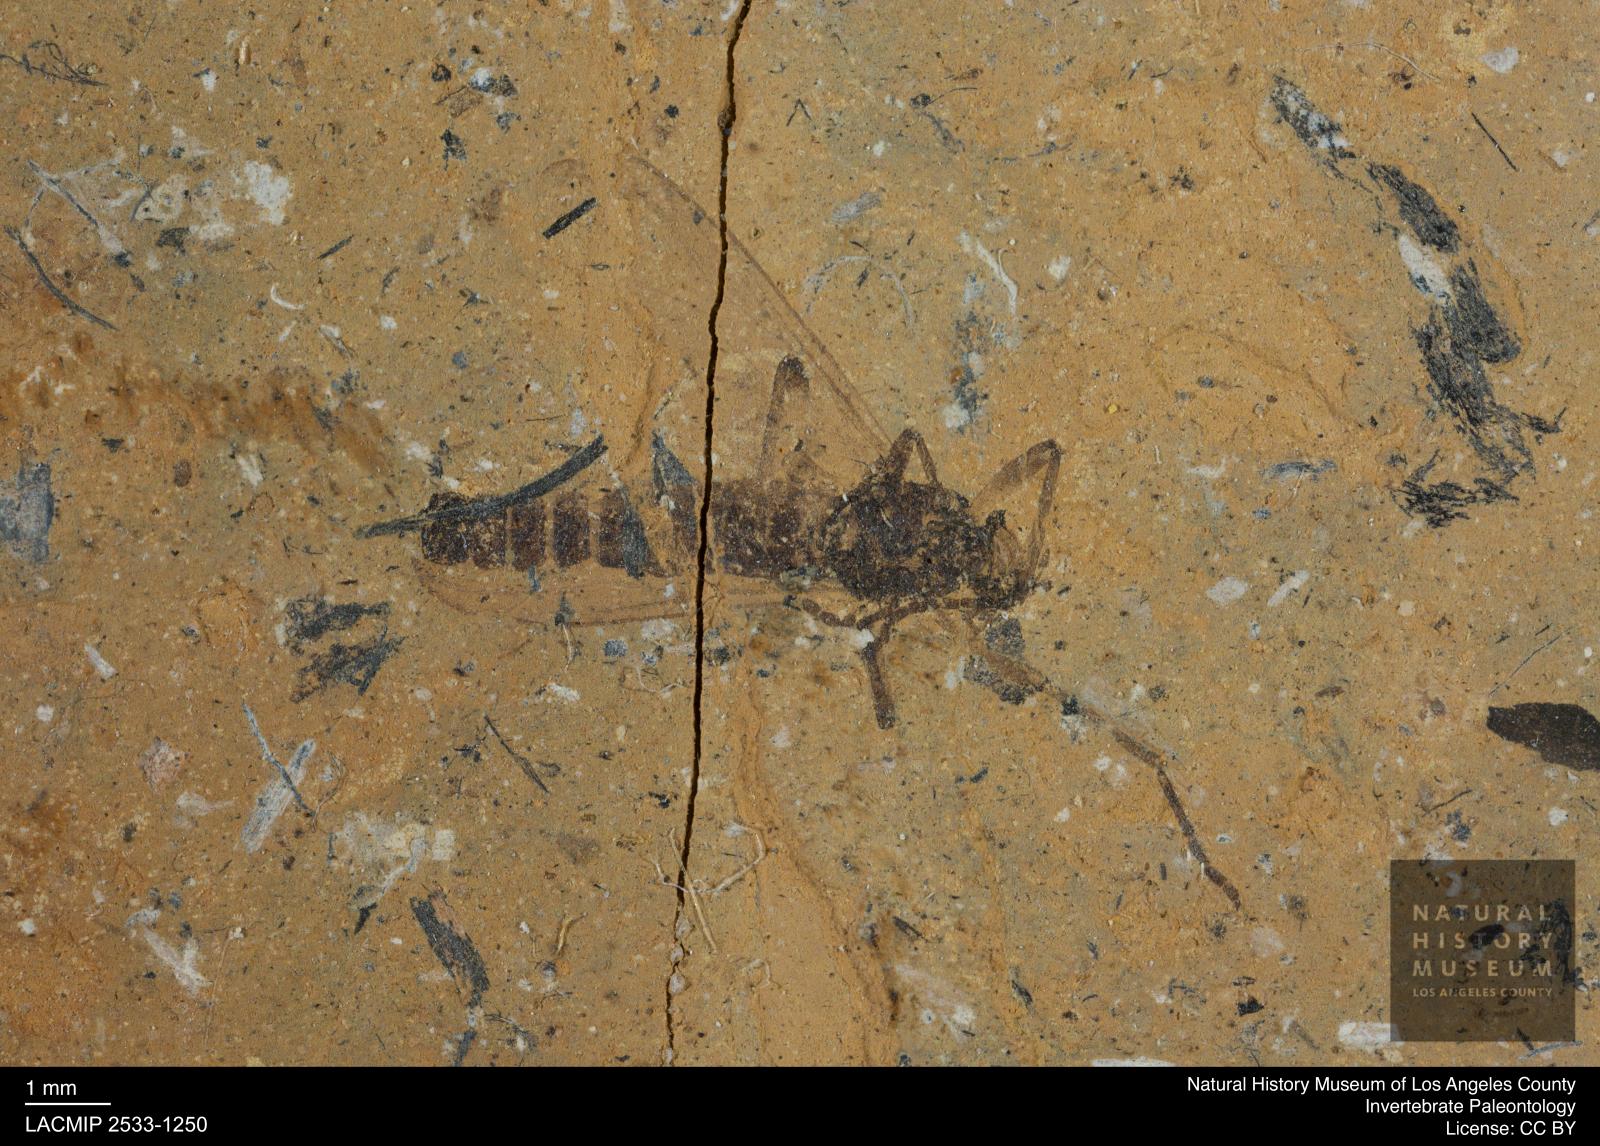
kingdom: Animalia
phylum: Arthropoda
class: Insecta
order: Diptera
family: Bibionidae
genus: Plecia
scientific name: Plecia
